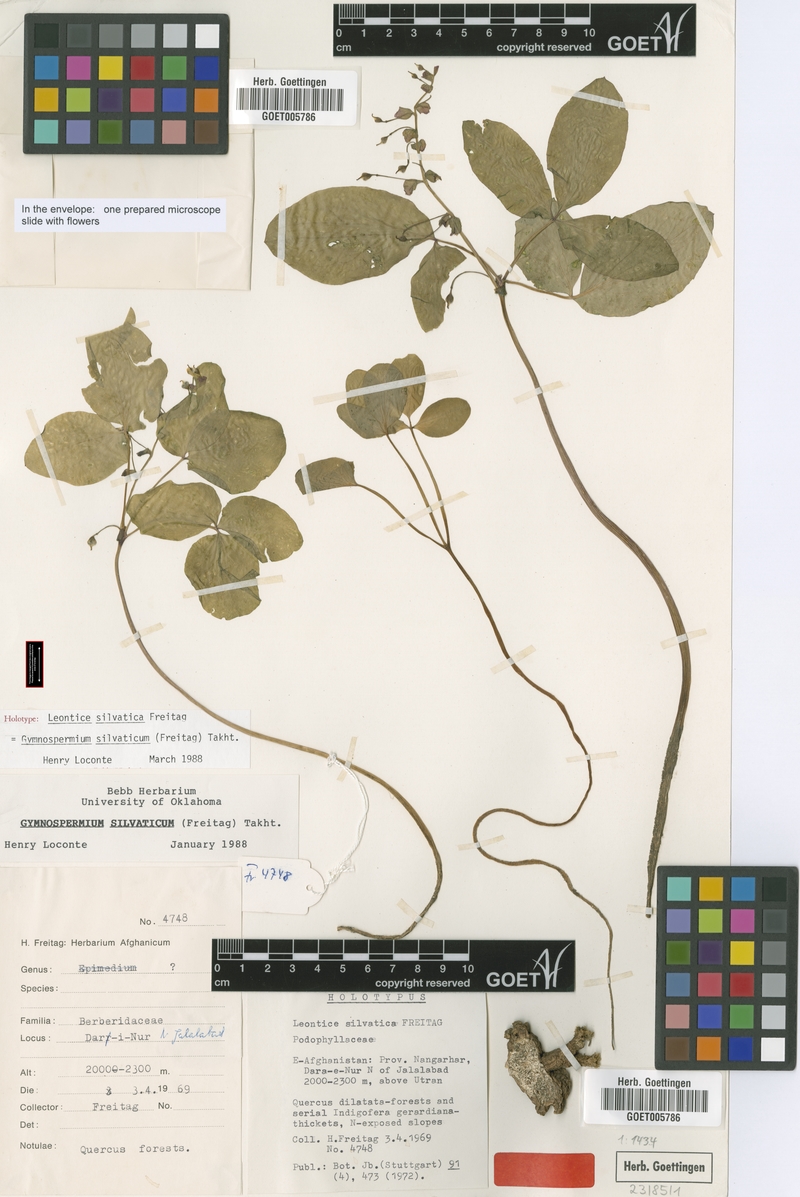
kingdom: Plantae
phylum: Tracheophyta
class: Magnoliopsida
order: Ranunculales
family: Berberidaceae
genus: Gymnospermium
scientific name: Gymnospermium silvaticum
